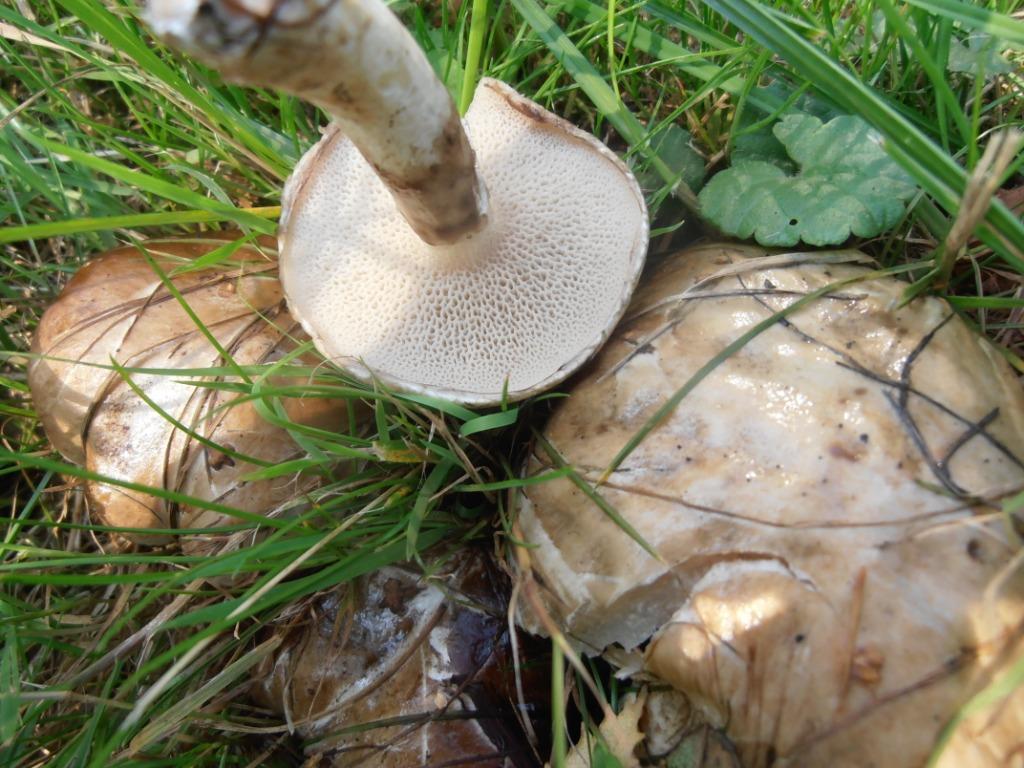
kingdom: Fungi
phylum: Basidiomycota
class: Agaricomycetes
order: Boletales
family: Suillaceae
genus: Suillus
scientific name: Suillus viscidus
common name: olivengrå slimrørhat
